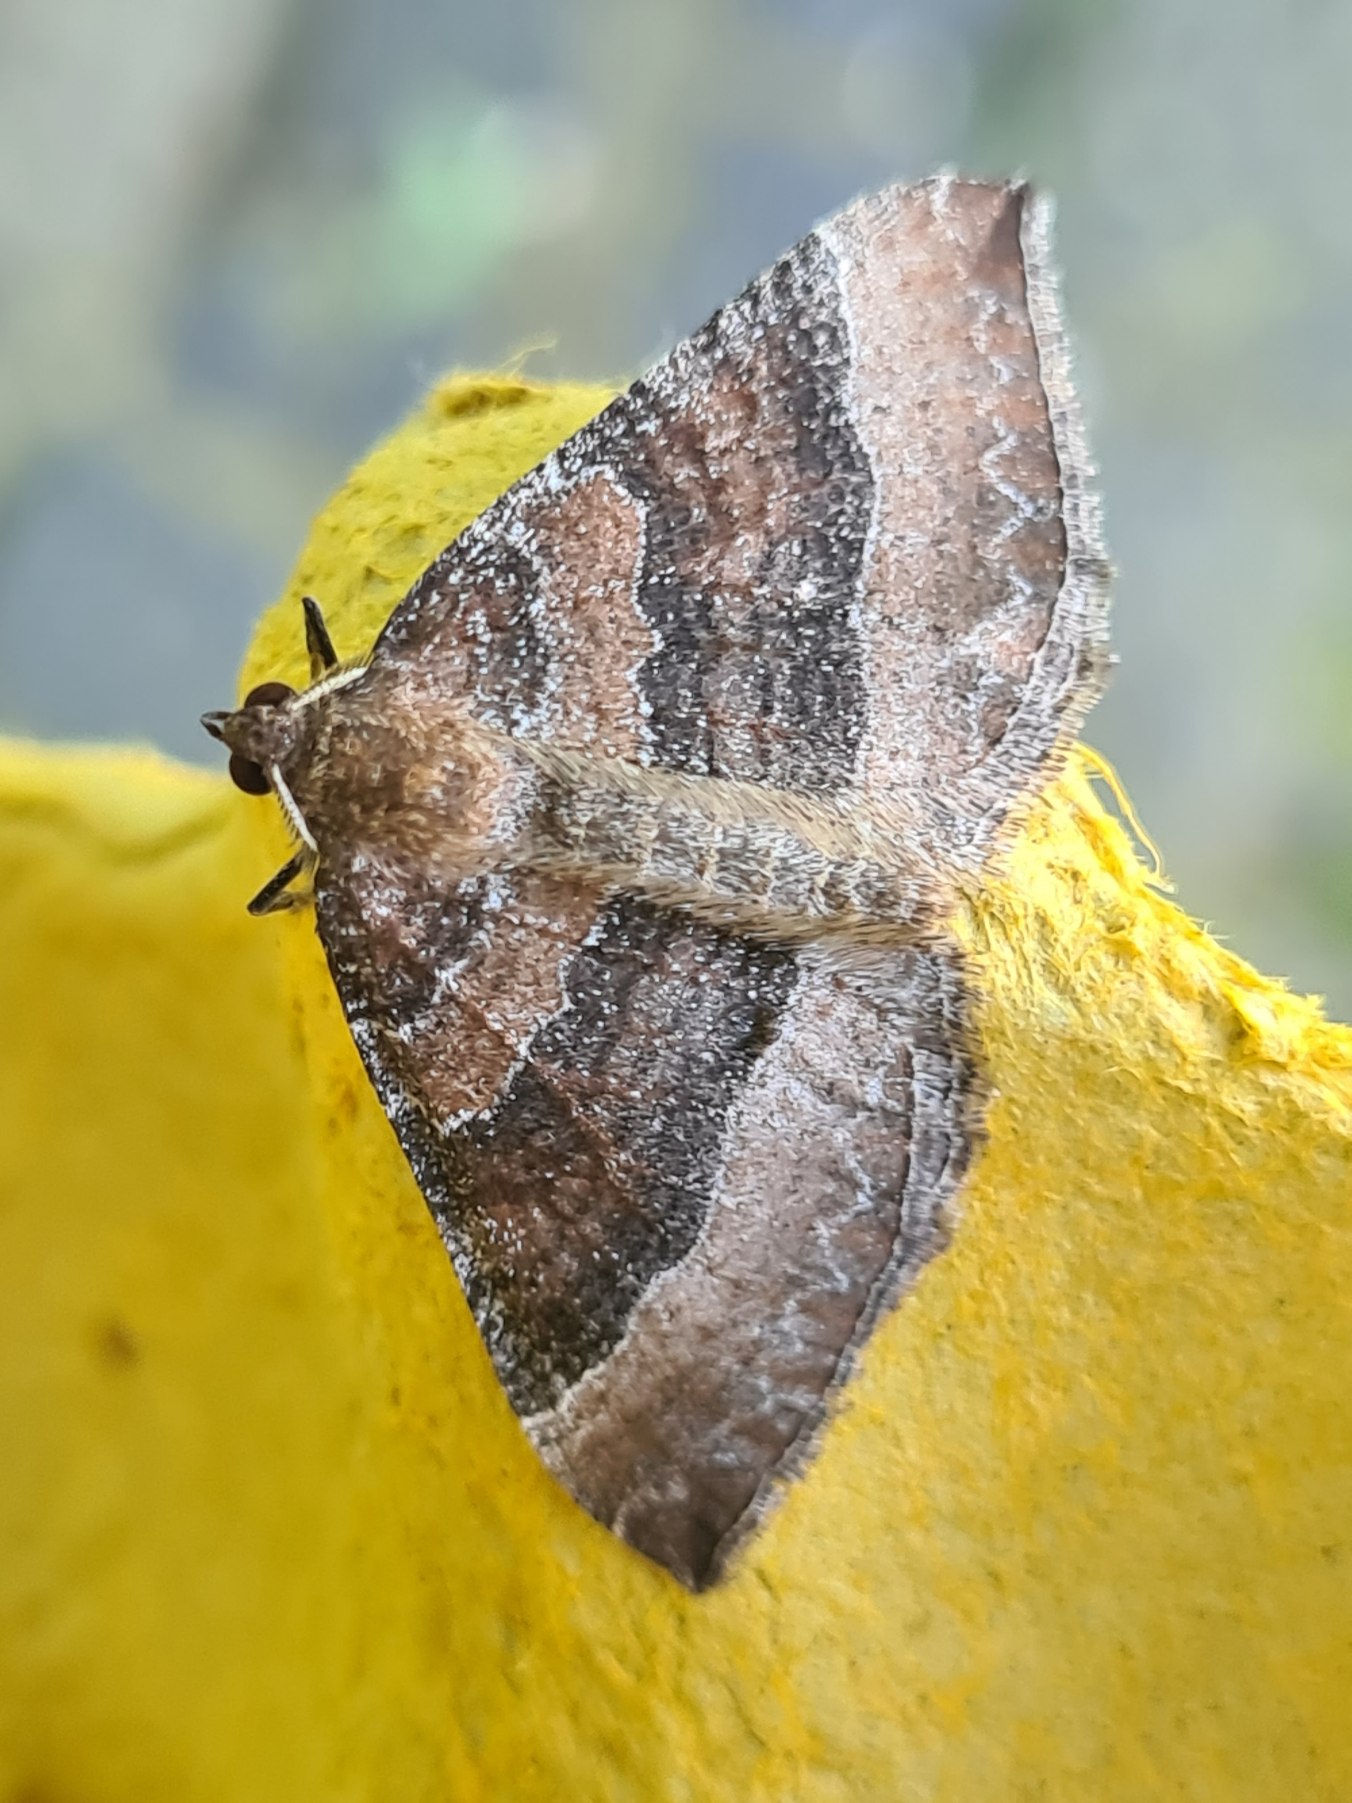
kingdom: Animalia
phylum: Arthropoda
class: Insecta
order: Lepidoptera
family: Geometridae
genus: Larentia
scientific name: Larentia clavaria
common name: Katostmåler
